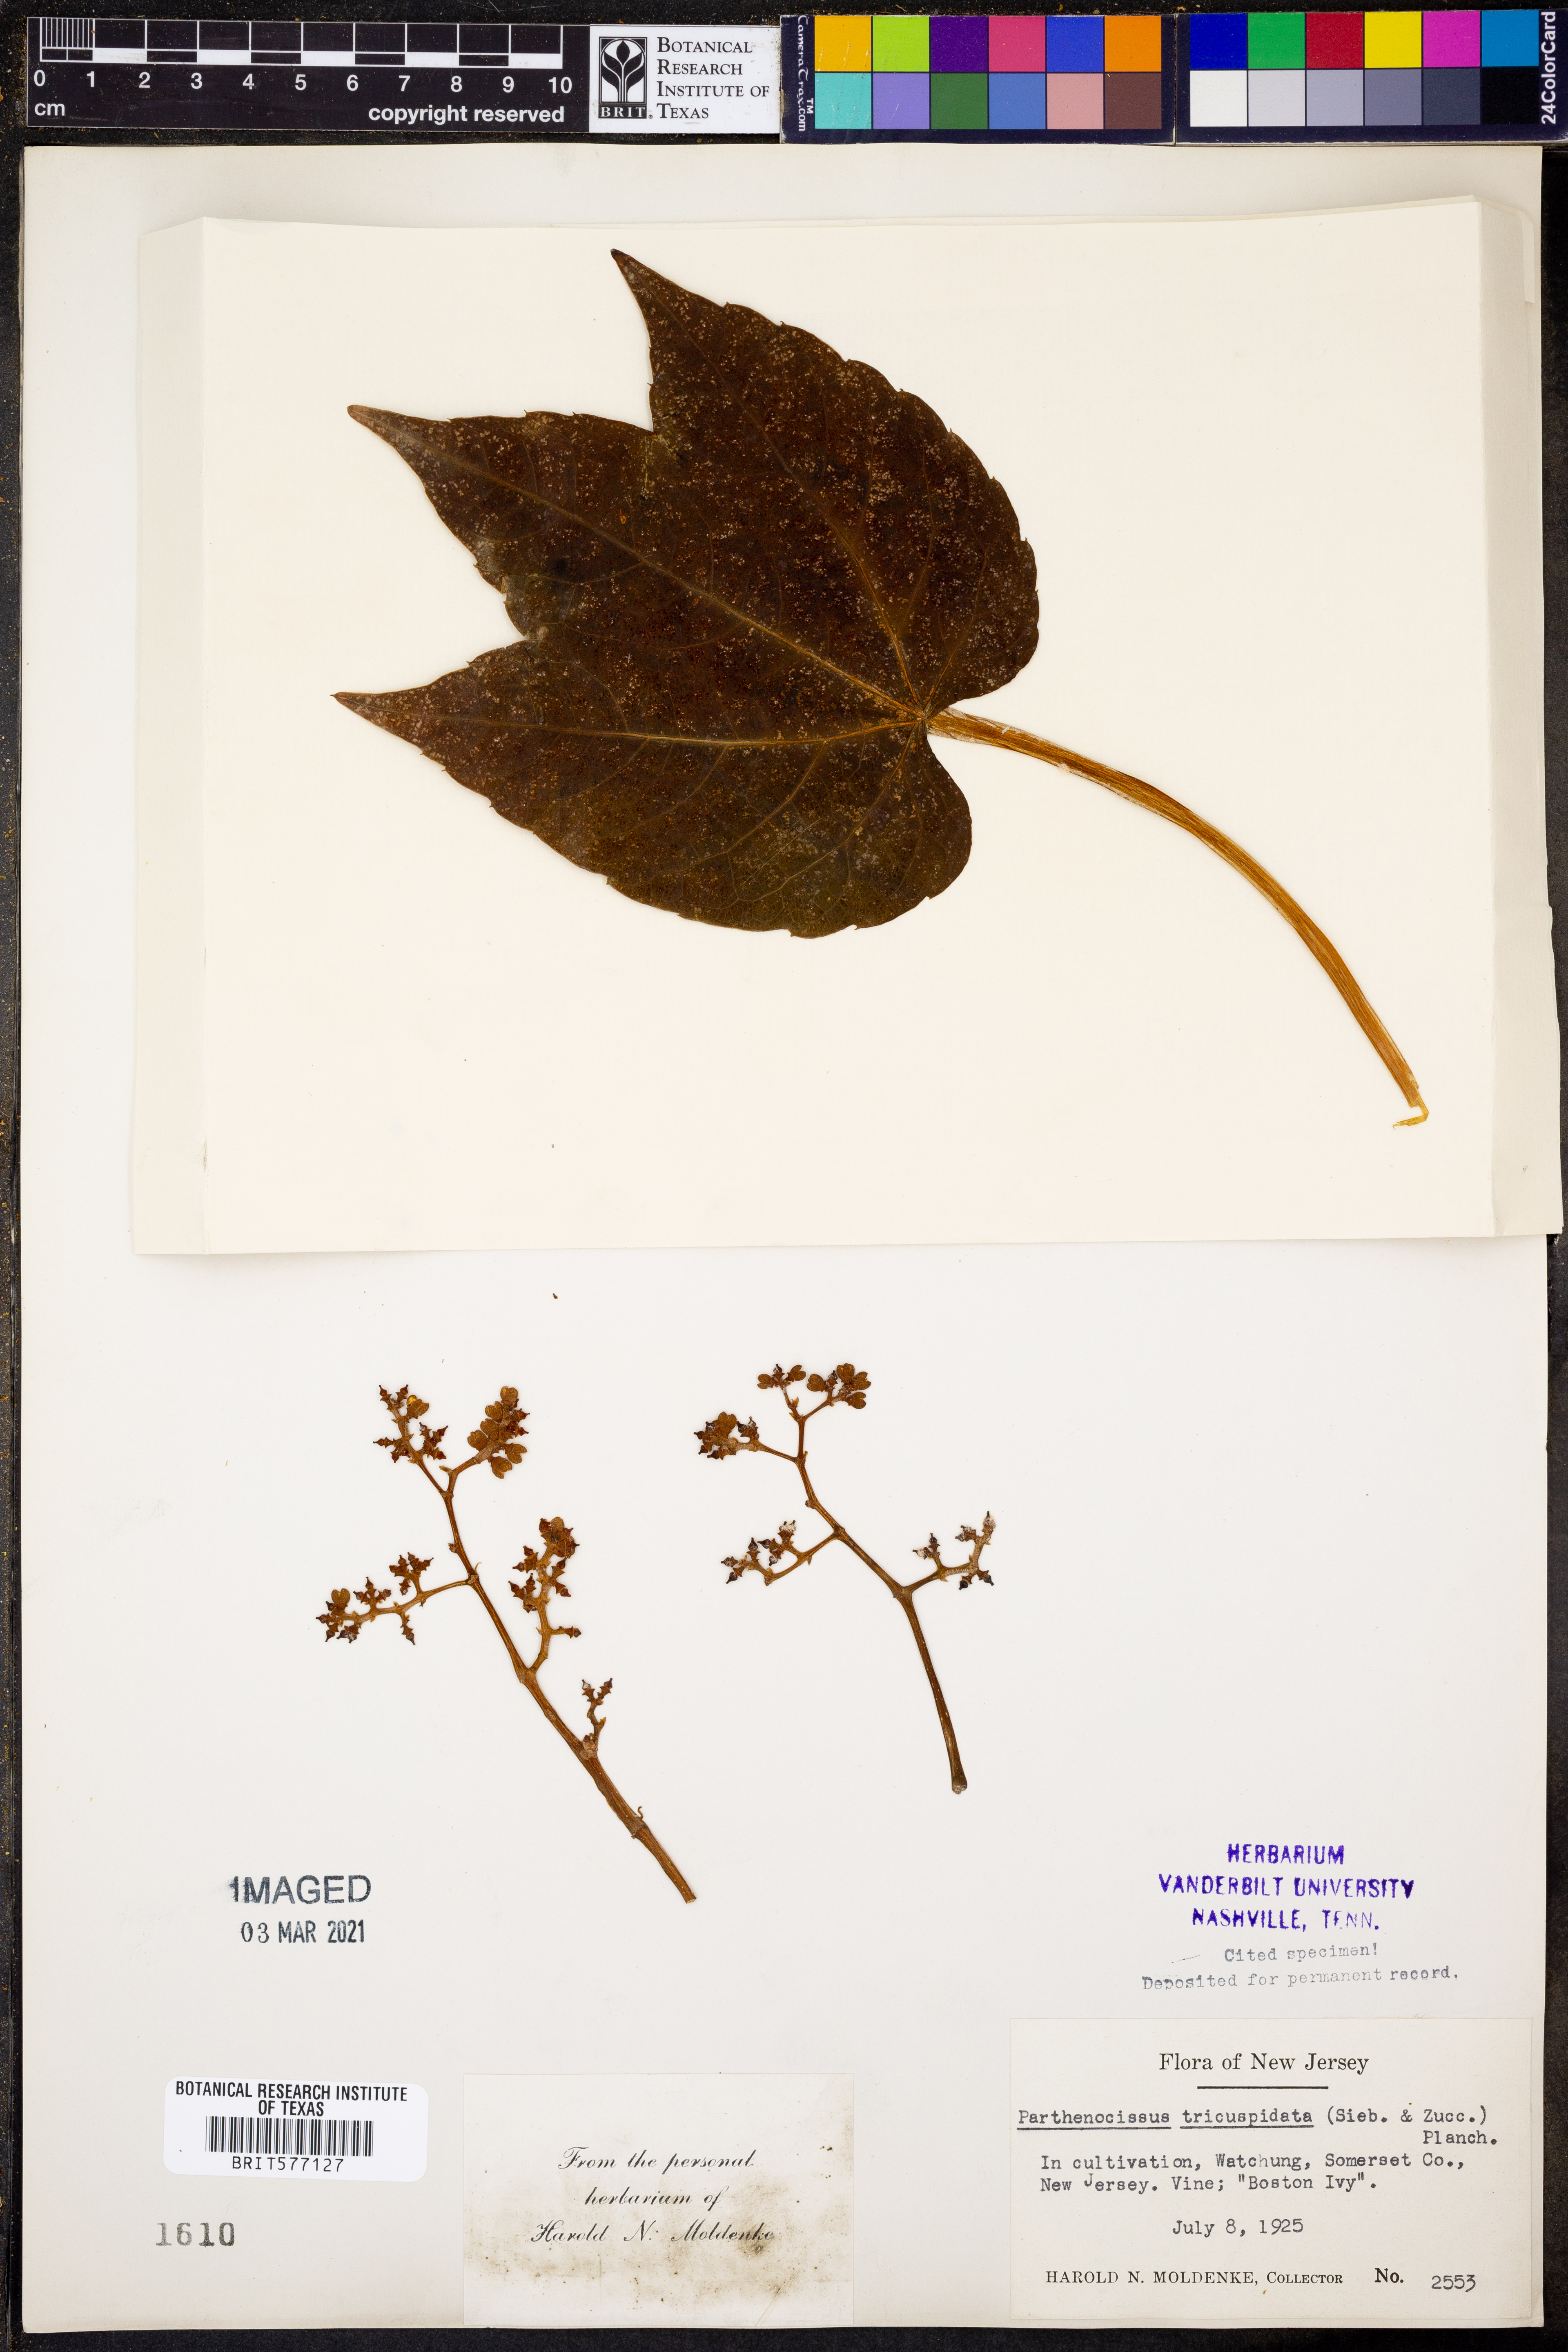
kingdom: Plantae
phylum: Tracheophyta
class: Magnoliopsida
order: Vitales
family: Vitaceae
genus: Parthenocissus
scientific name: Parthenocissus tricuspidata
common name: Boston ivy
